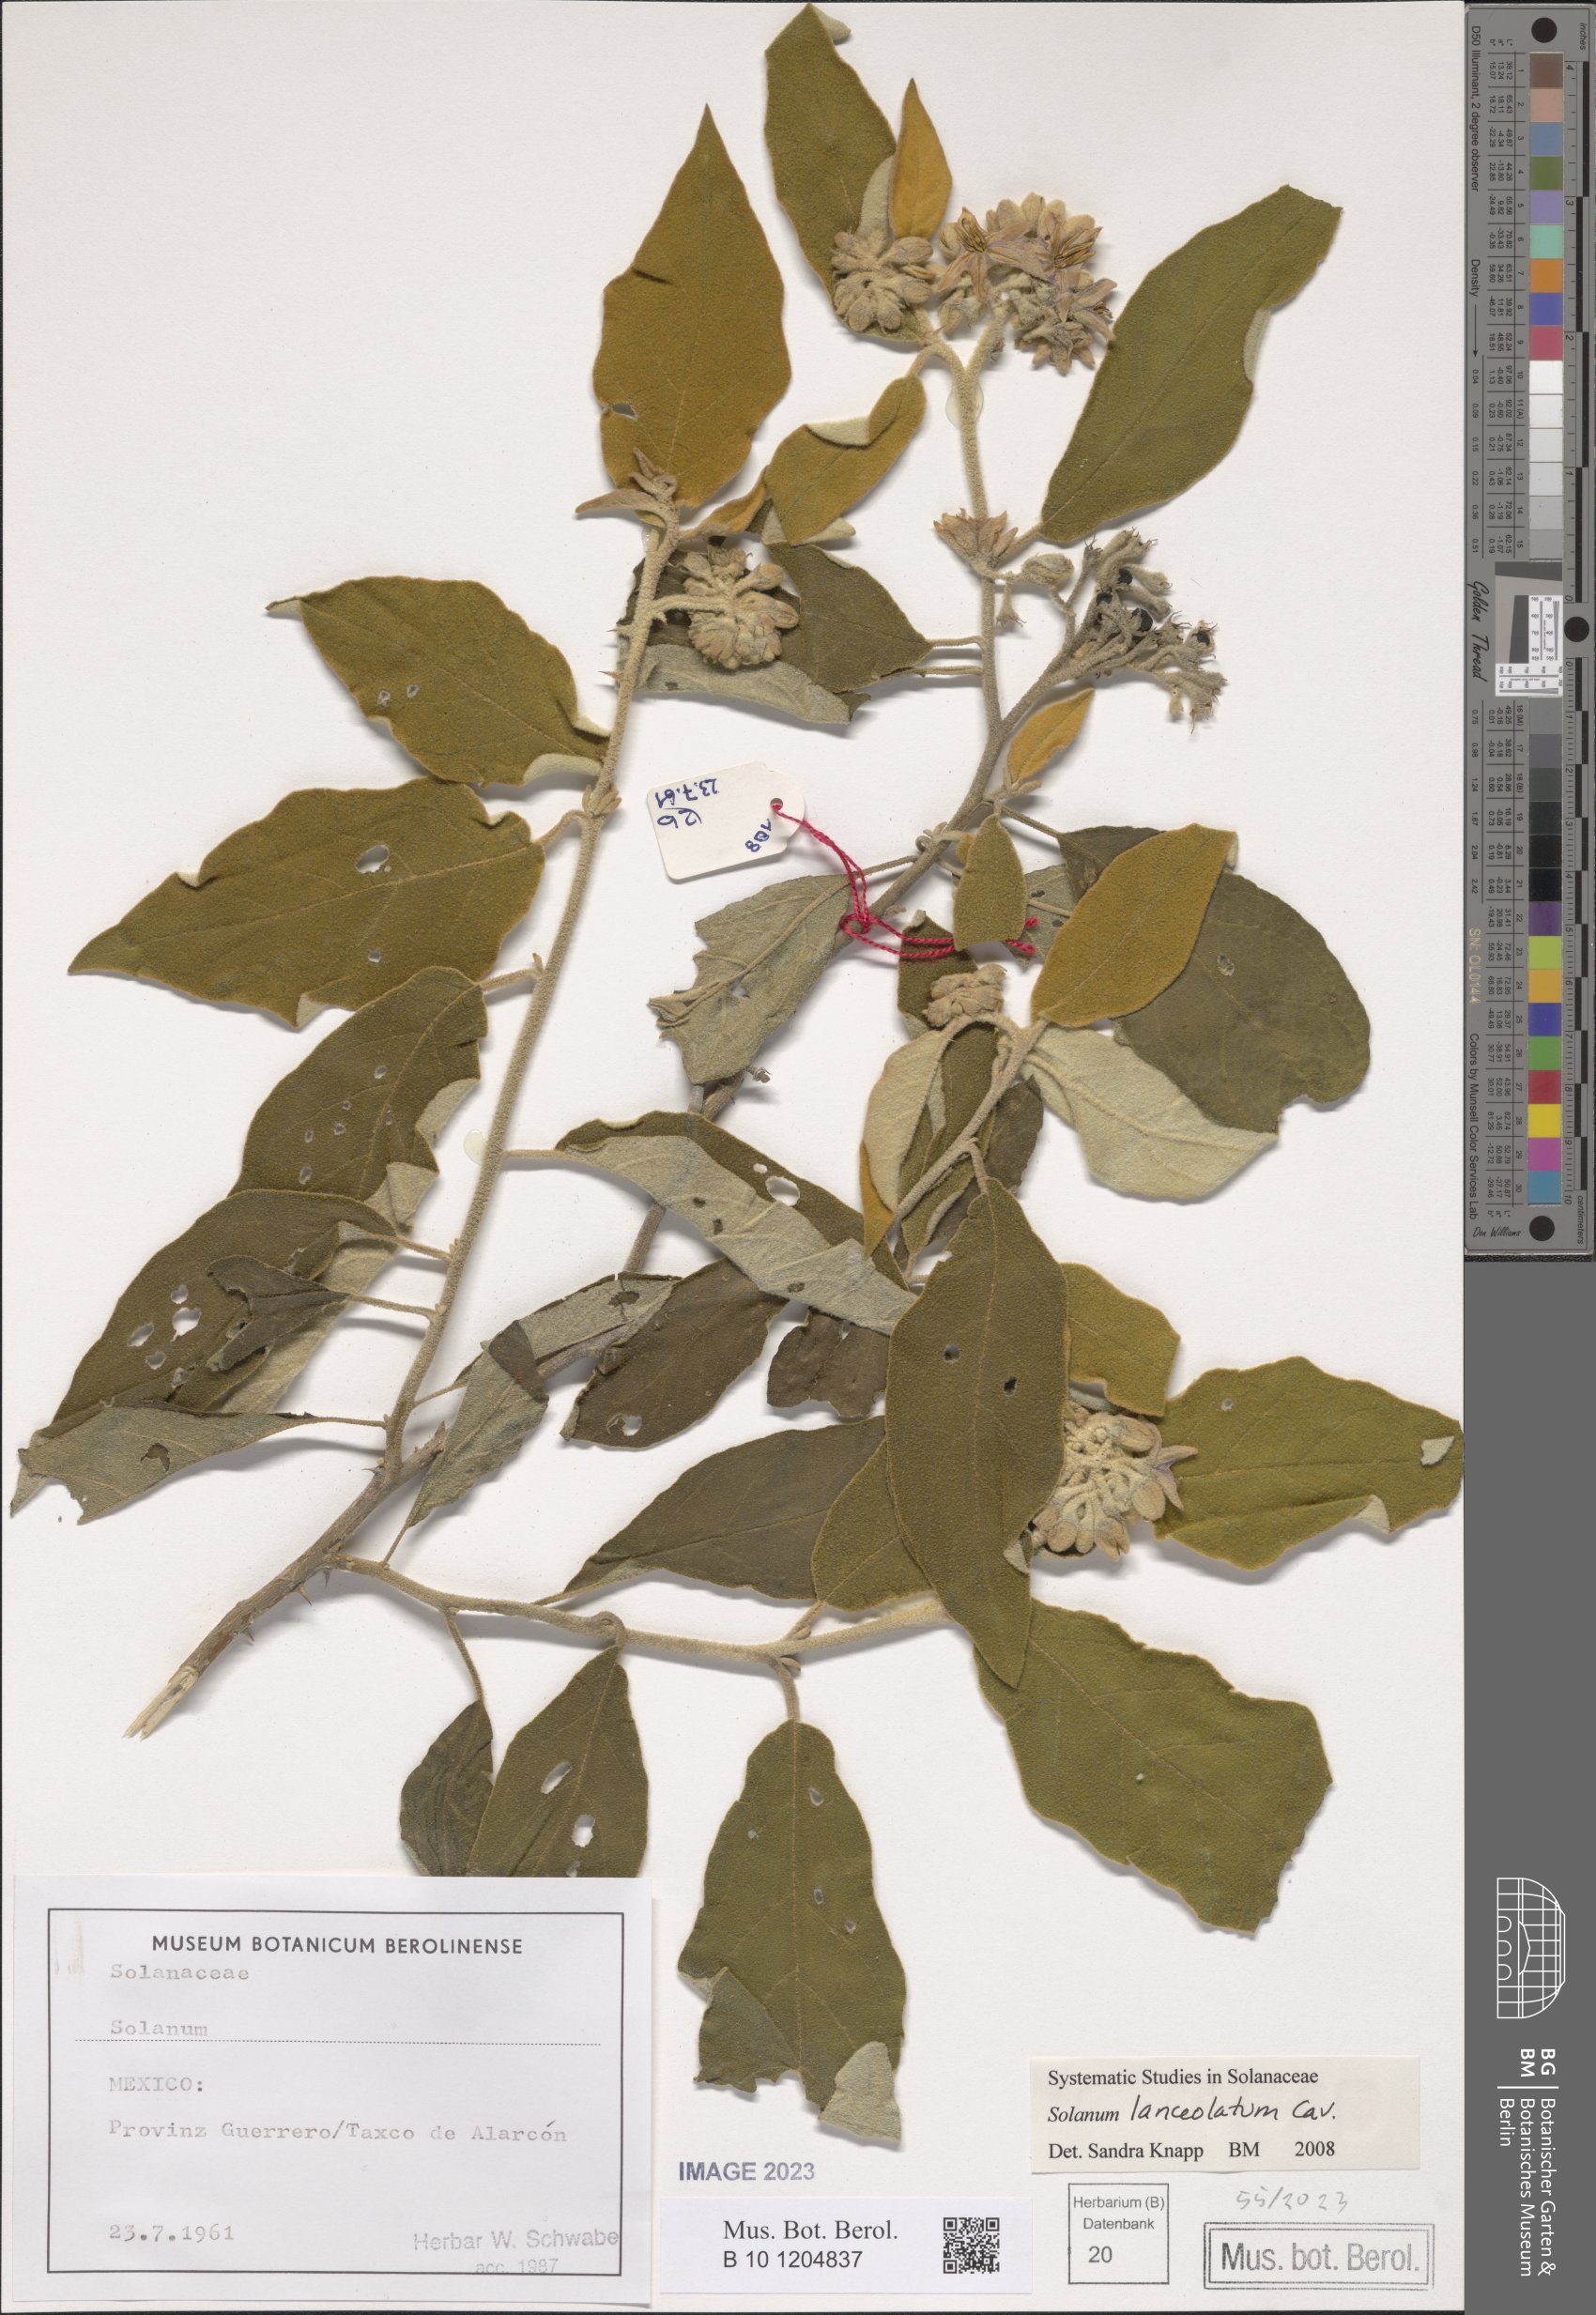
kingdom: Plantae
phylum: Tracheophyta
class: Magnoliopsida
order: Solanales
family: Solanaceae
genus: Solanum
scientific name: Solanum lanceolatum
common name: Orangeberry nightshade
